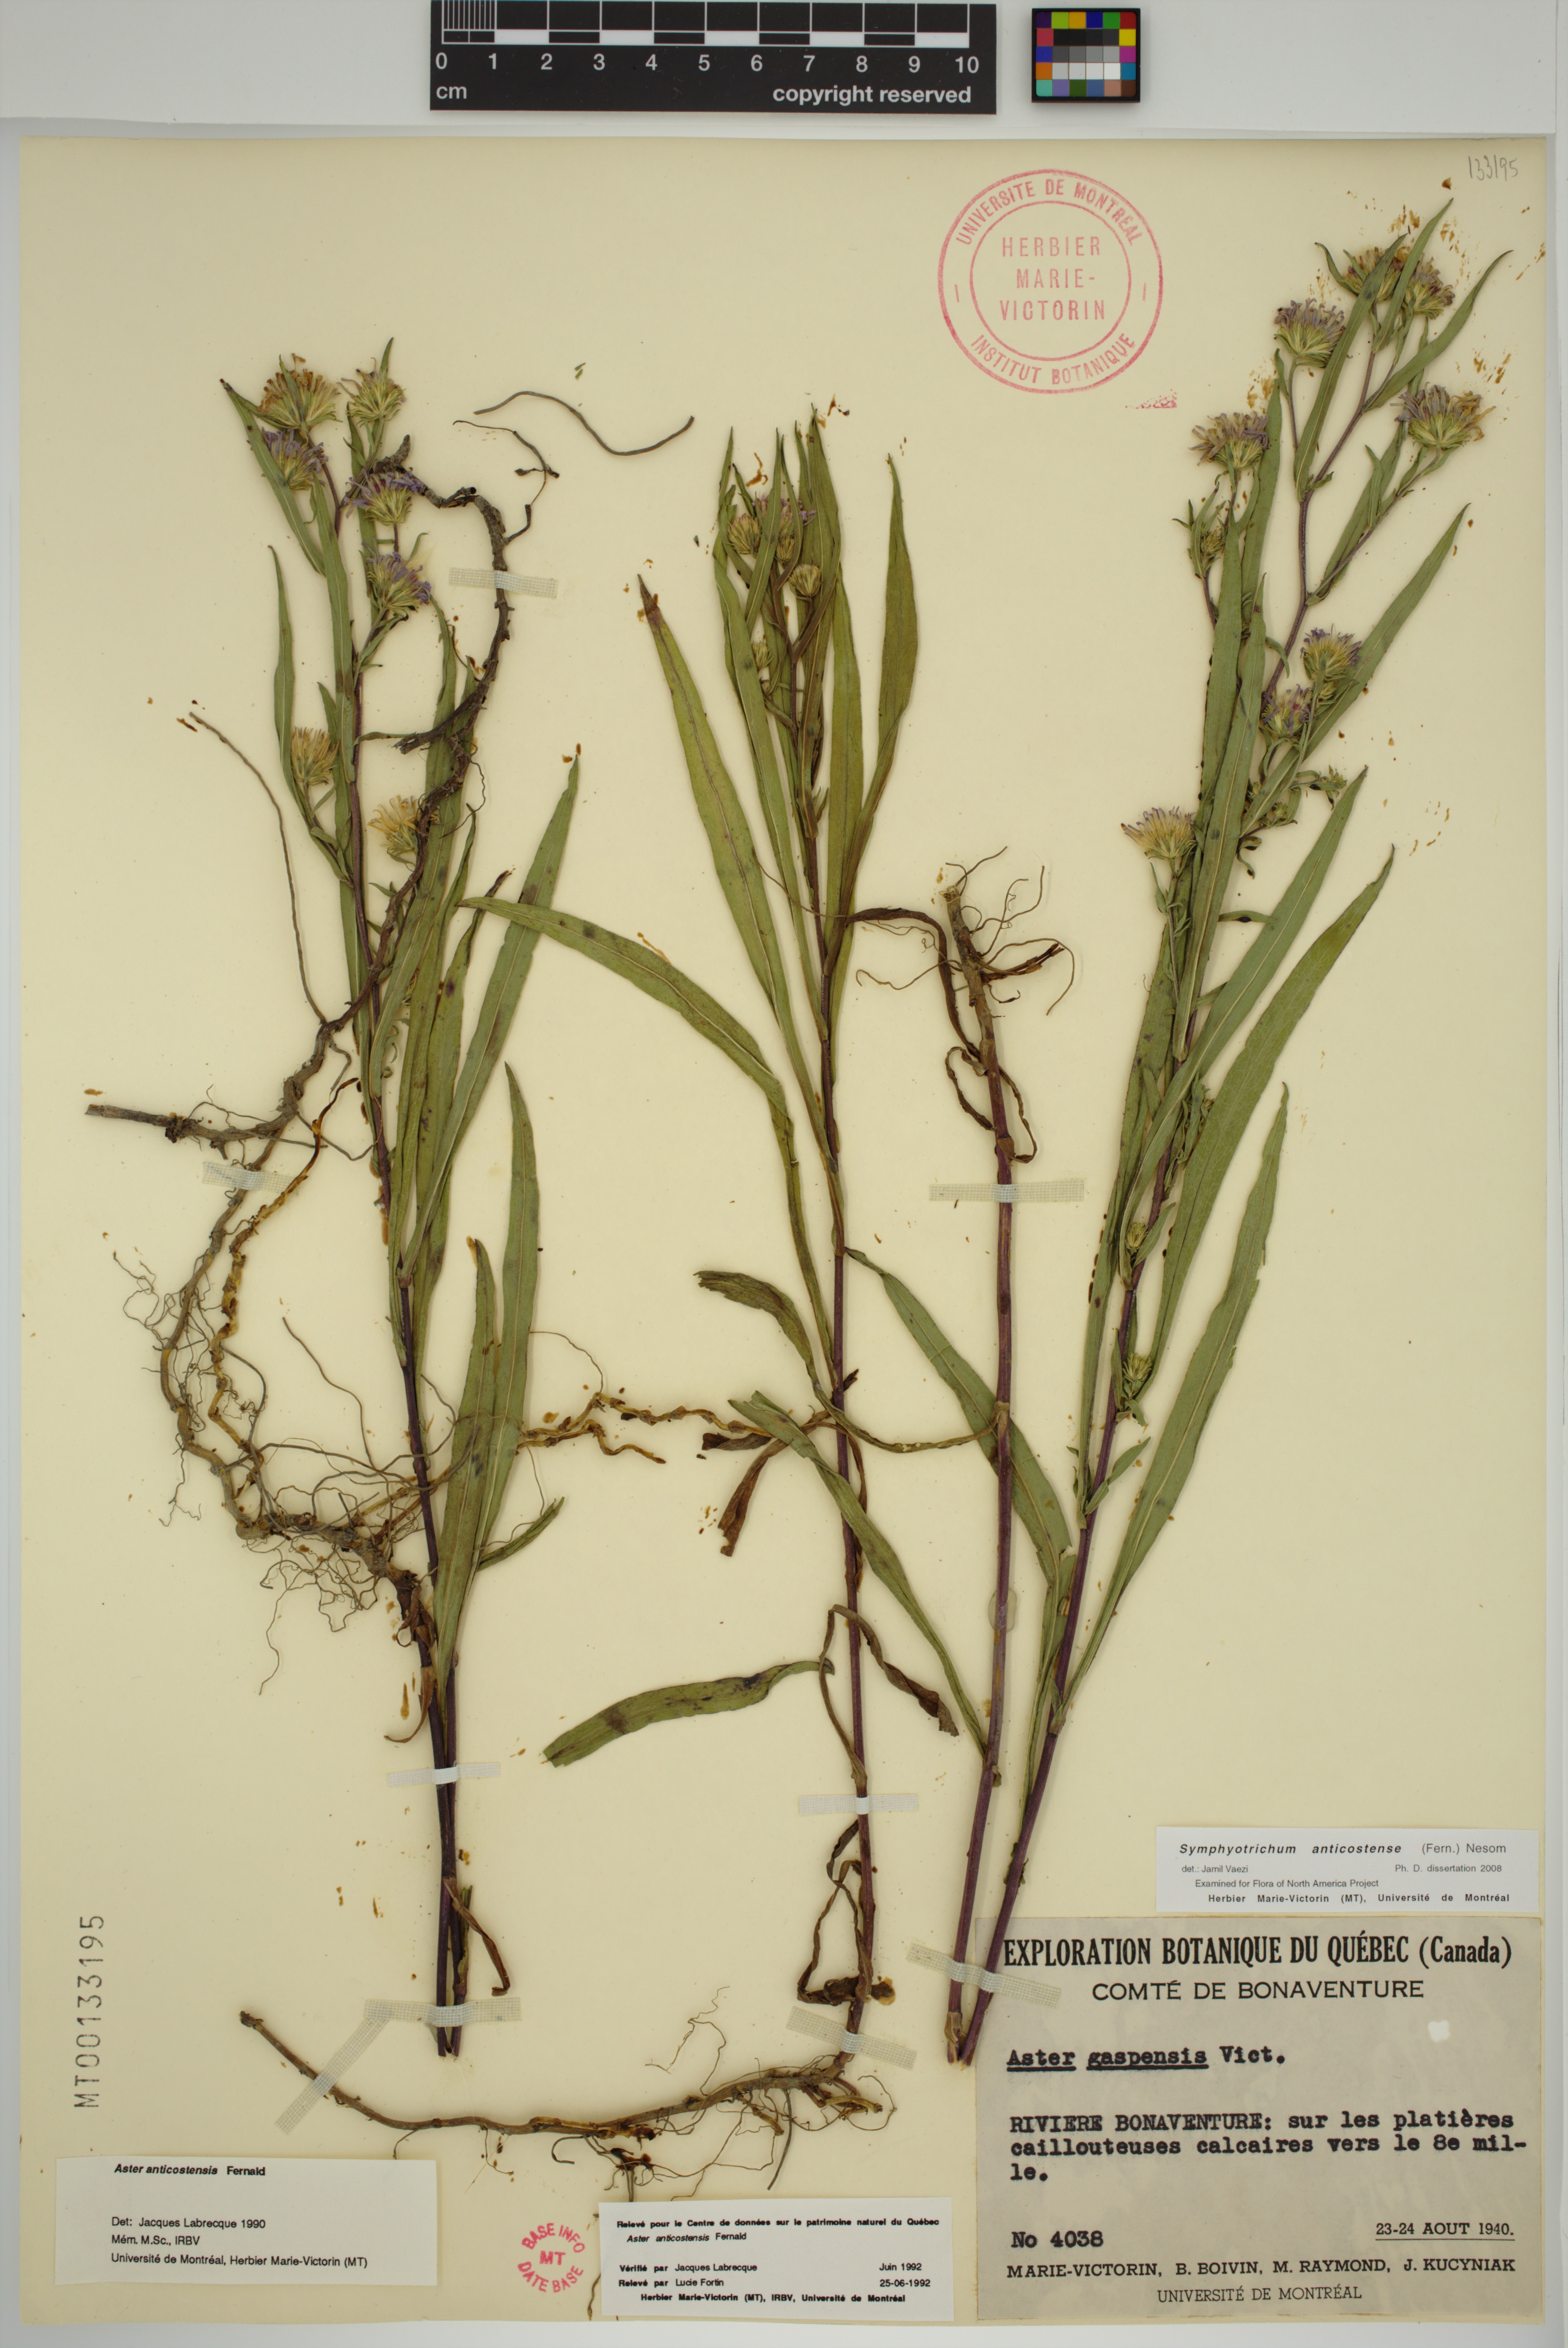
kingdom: Plantae
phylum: Tracheophyta
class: Magnoliopsida
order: Asterales
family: Asteraceae
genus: Symphyotrichum
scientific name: Symphyotrichum anticostense
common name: Anticosti island aster
